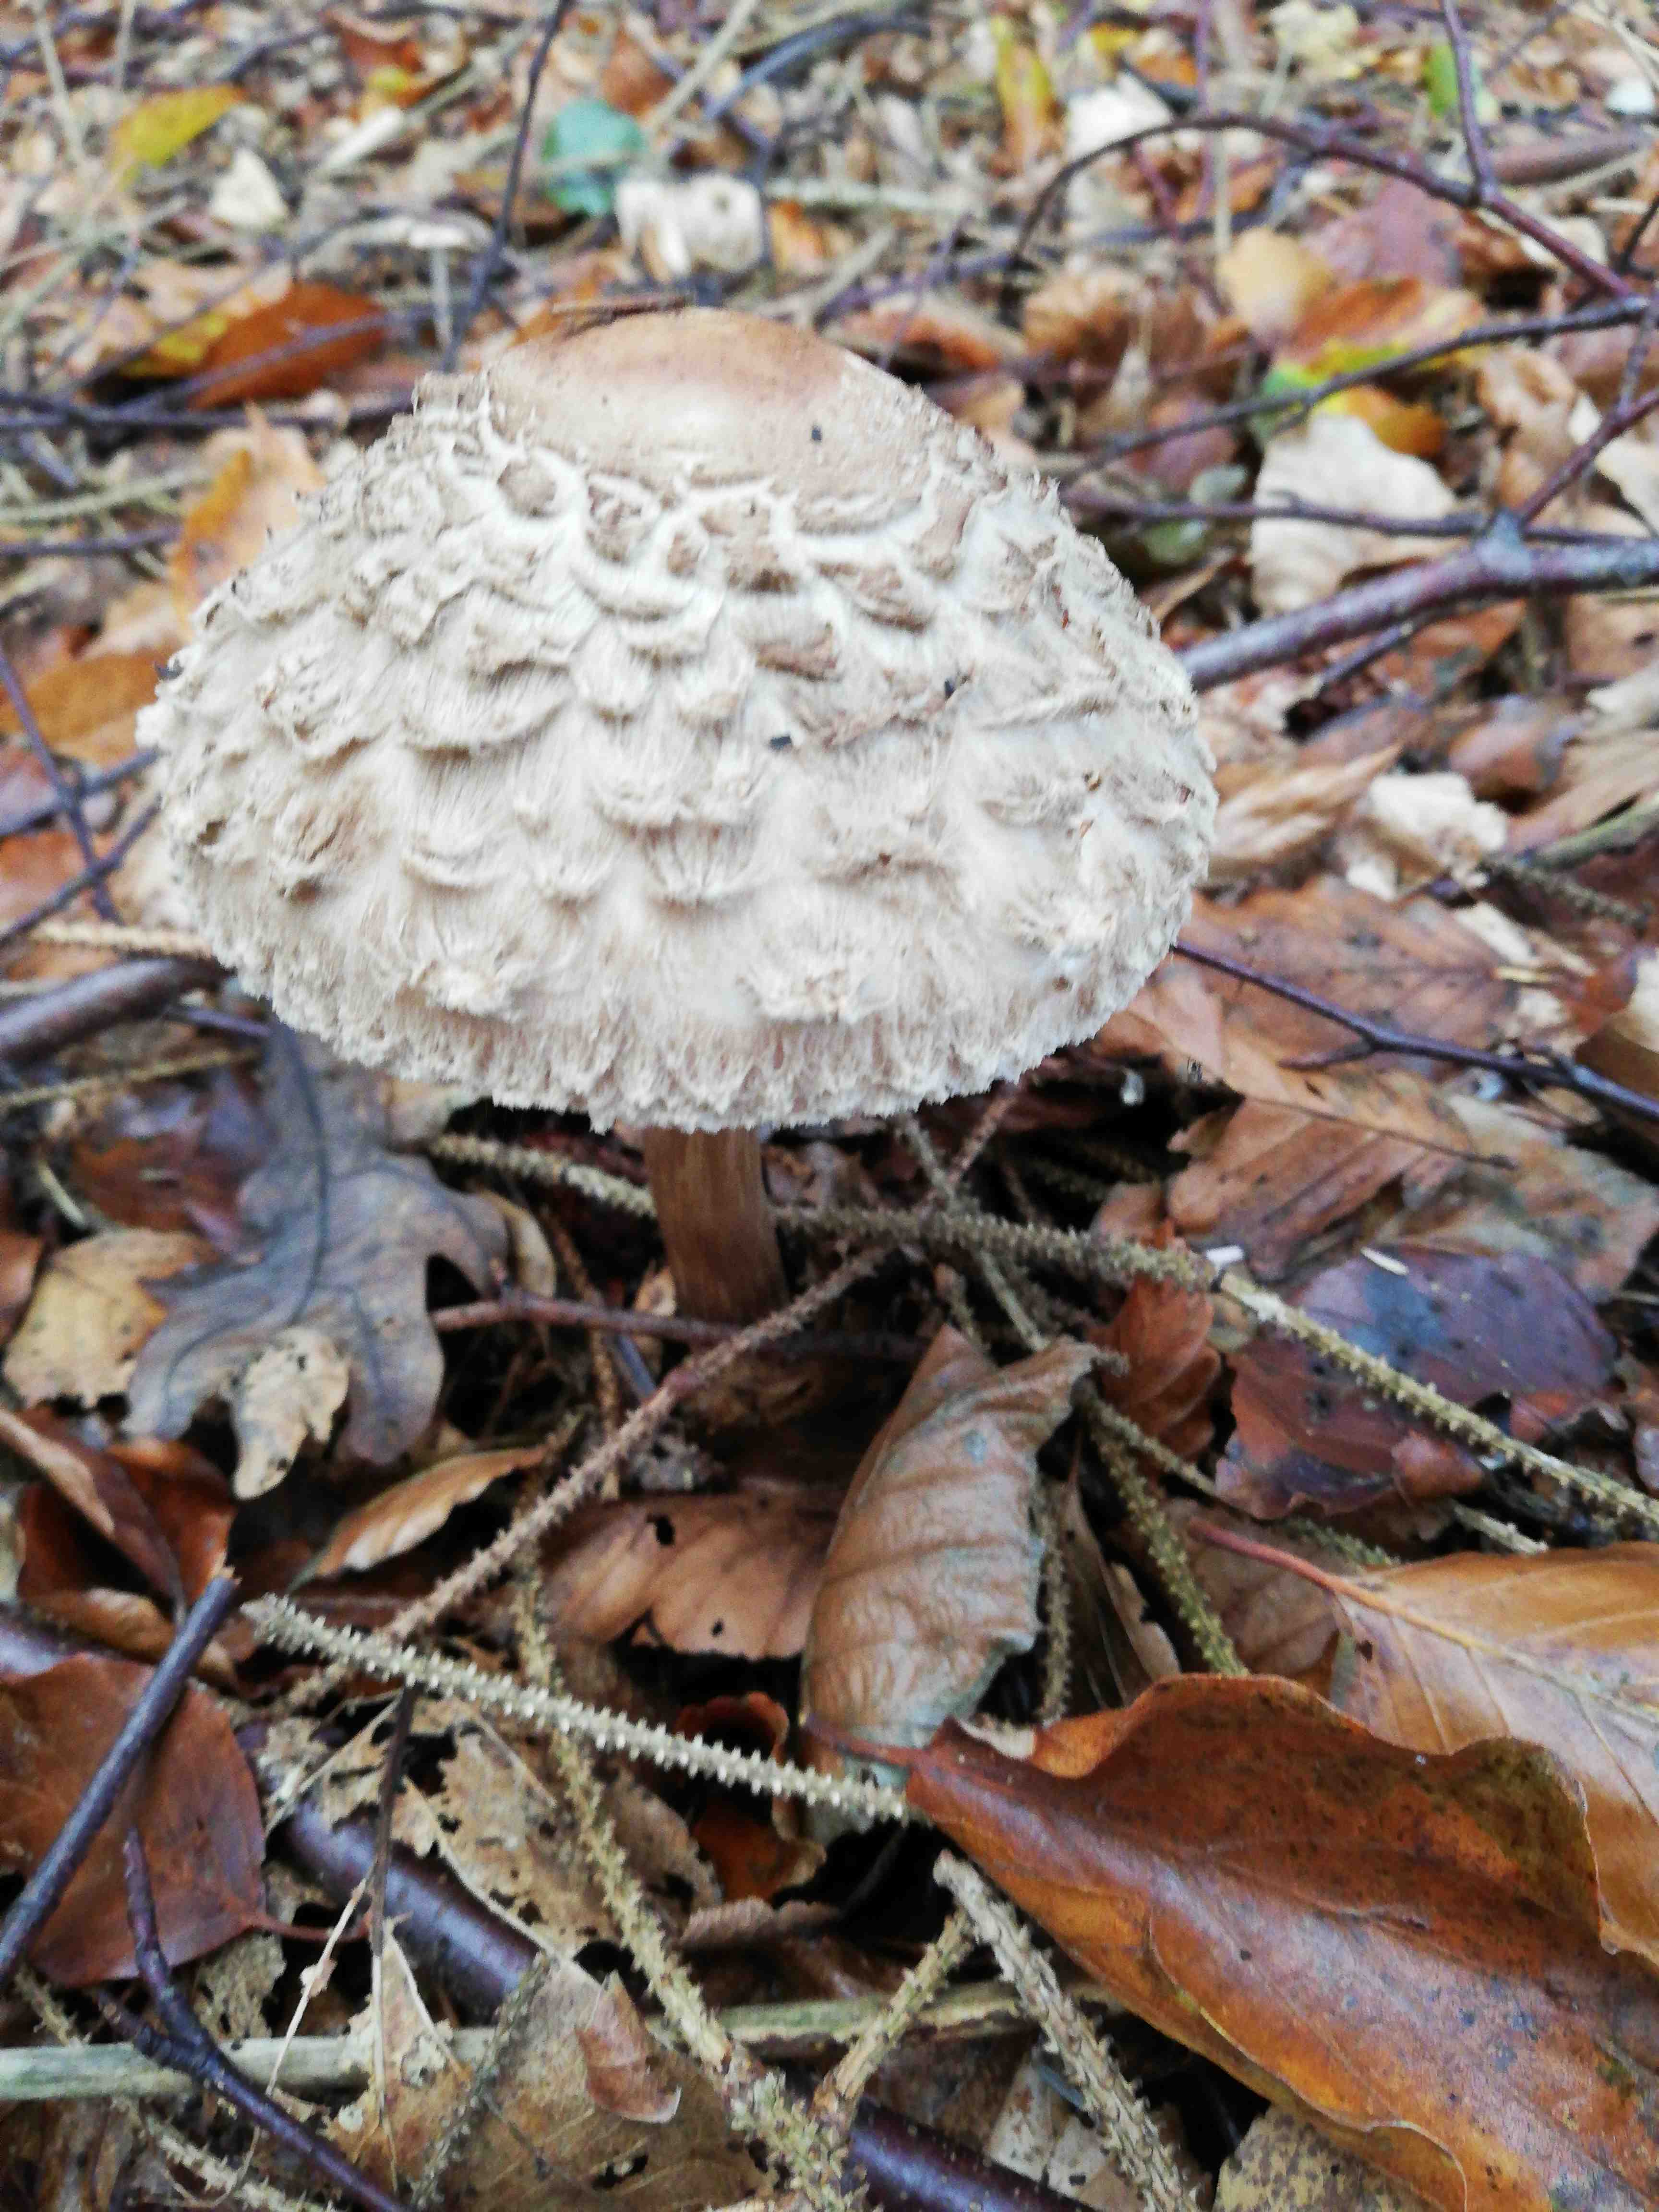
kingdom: Fungi
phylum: Basidiomycota
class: Agaricomycetes
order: Agaricales
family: Lycoperdaceae
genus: Apioperdon
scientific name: Apioperdon pyriforme
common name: pære-støvbold
